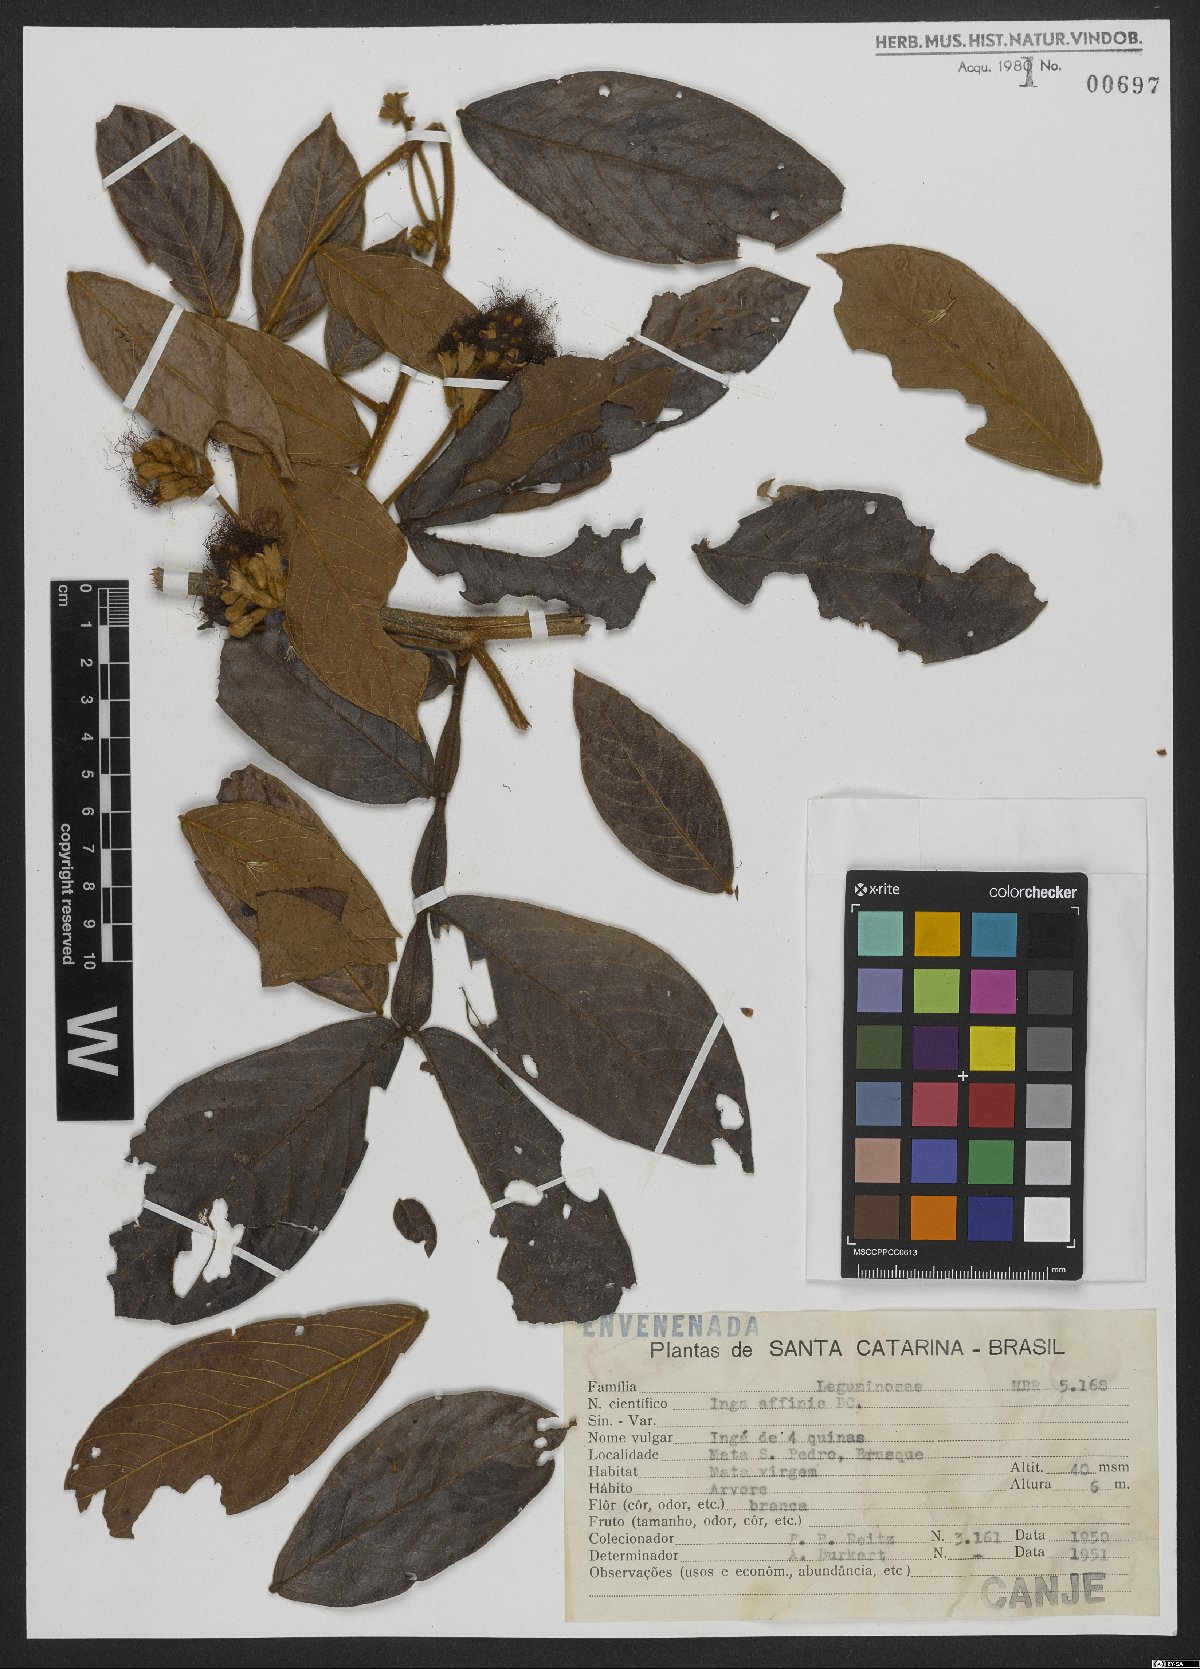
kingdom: Plantae
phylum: Tracheophyta
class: Magnoliopsida
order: Fabales
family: Fabaceae
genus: Inga
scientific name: Inga pilosula
